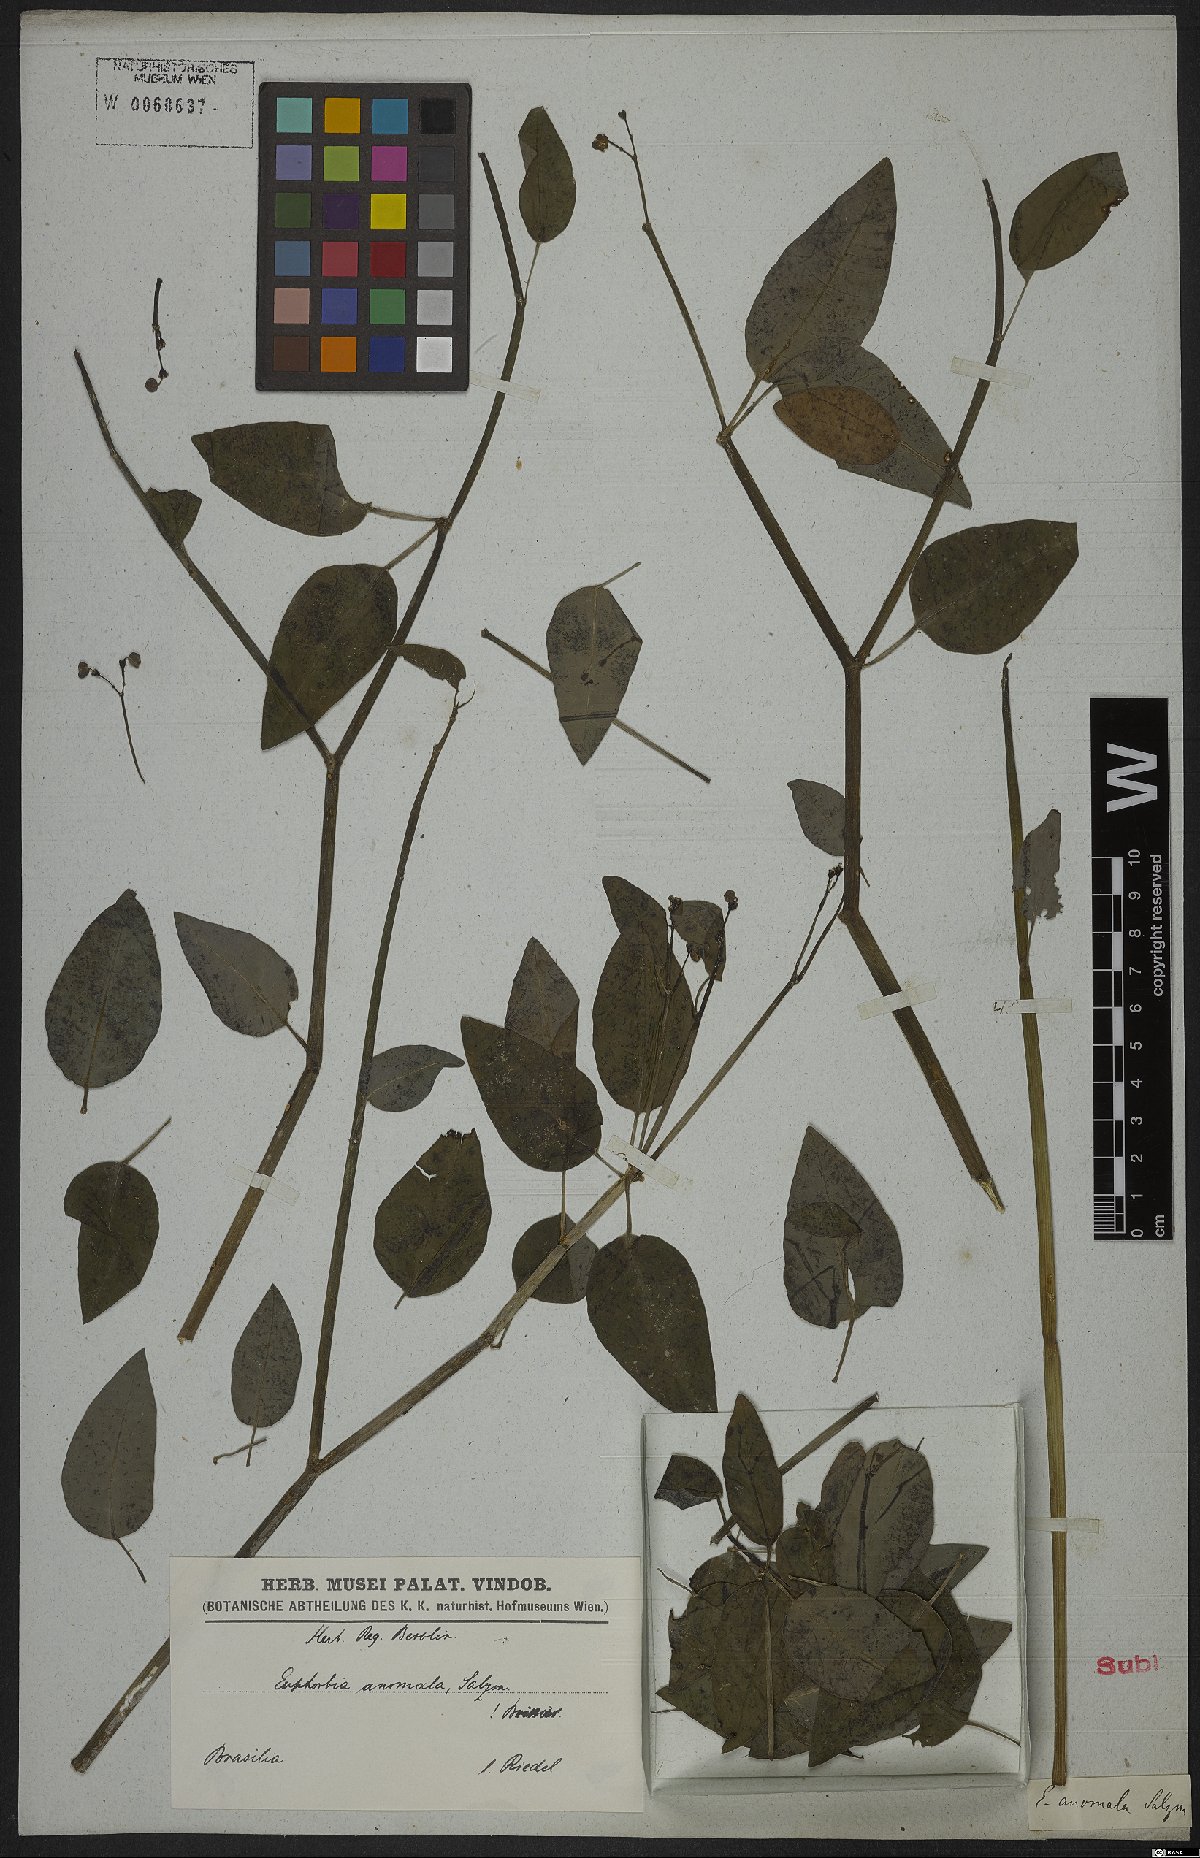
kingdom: Plantae
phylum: Tracheophyta
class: Magnoliopsida
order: Malpighiales
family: Euphorbiaceae
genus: Euphorbia
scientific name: Euphorbia glanduligera
